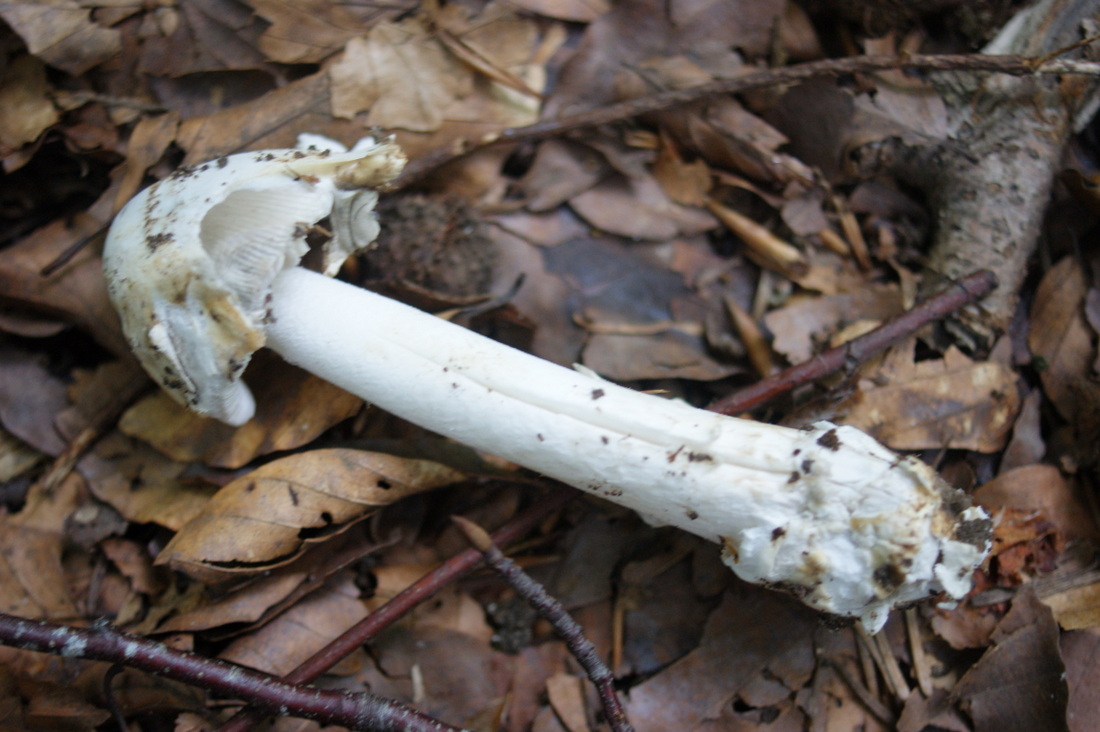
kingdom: Fungi
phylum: Basidiomycota
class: Agaricomycetes
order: Agaricales
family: Amanitaceae
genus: Amanita
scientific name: Amanita vaginata
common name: grå kam-fluesvamp
